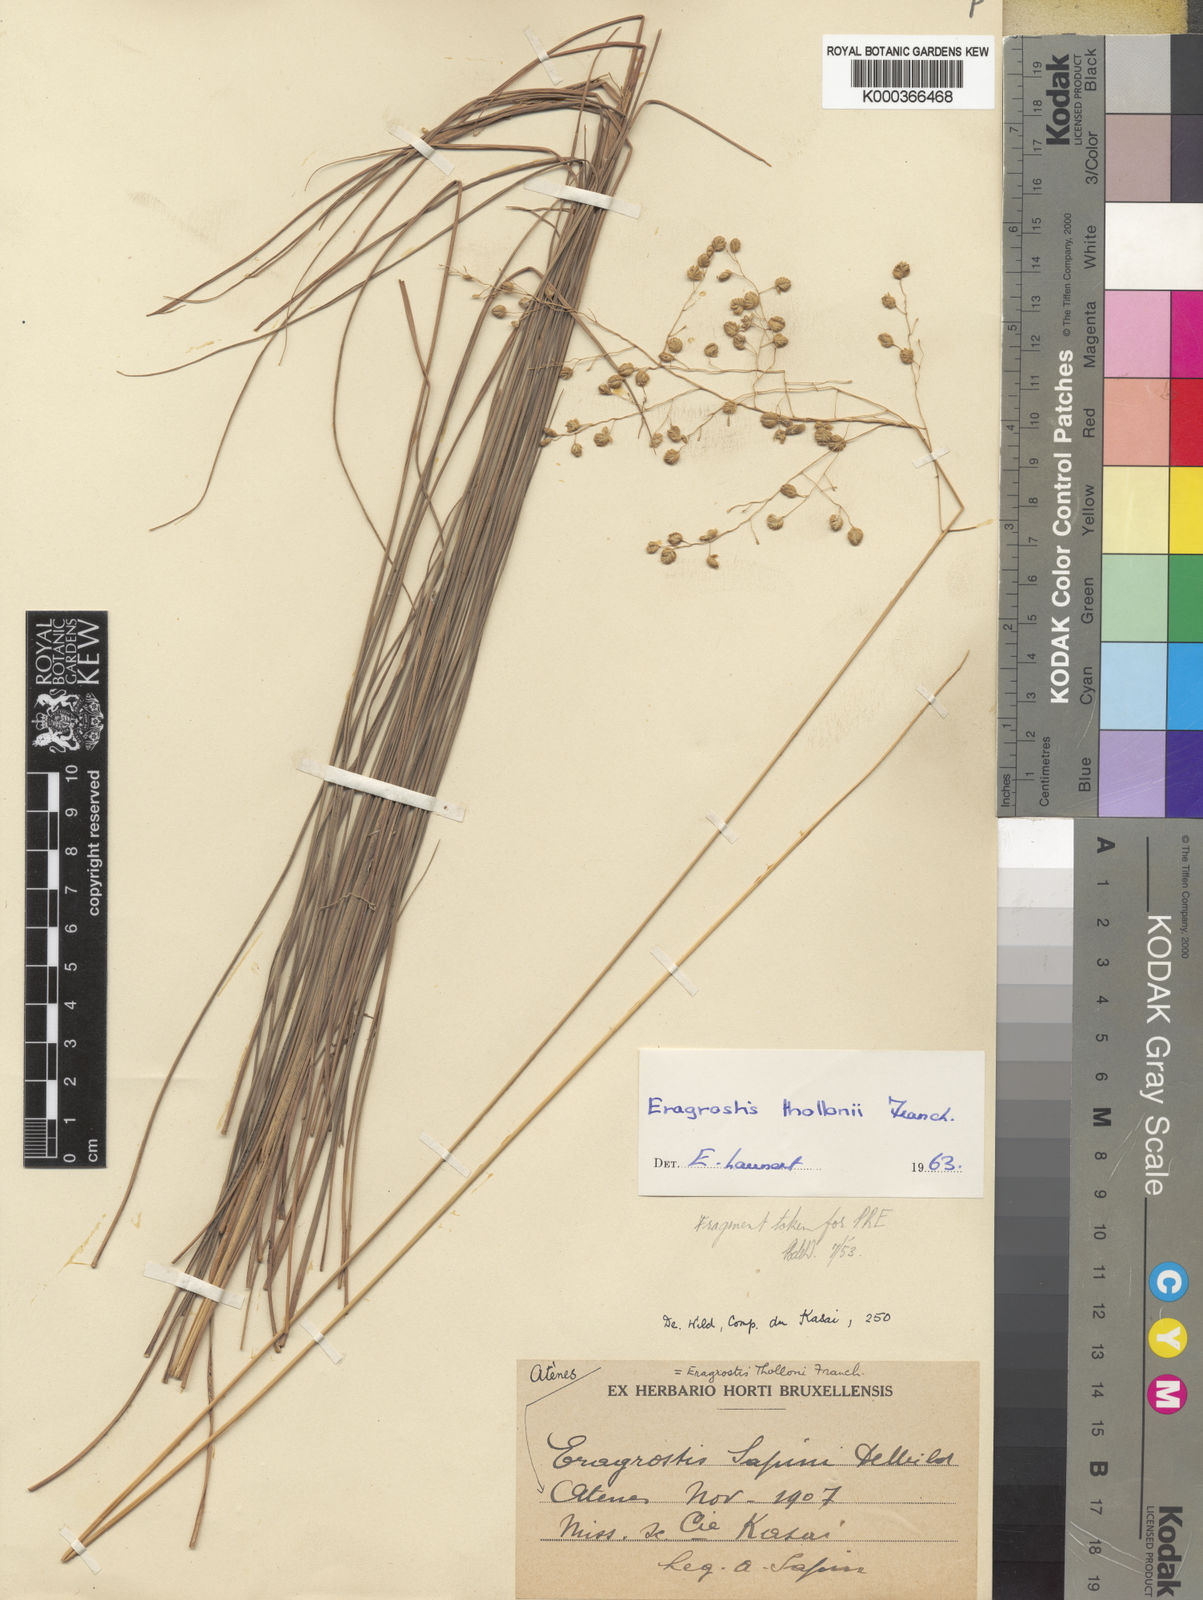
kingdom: Plantae
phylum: Tracheophyta
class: Liliopsida
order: Poales
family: Poaceae
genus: Eragrostis
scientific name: Eragrostis thollonii
